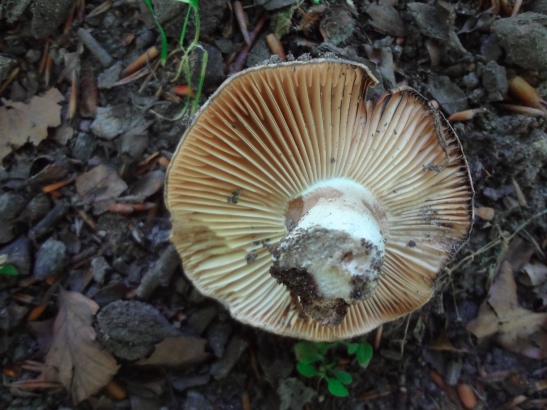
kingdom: Fungi
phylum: Basidiomycota
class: Agaricomycetes
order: Russulales
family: Russulaceae
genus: Russula
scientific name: Russula adusta
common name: sværtende skørhat
